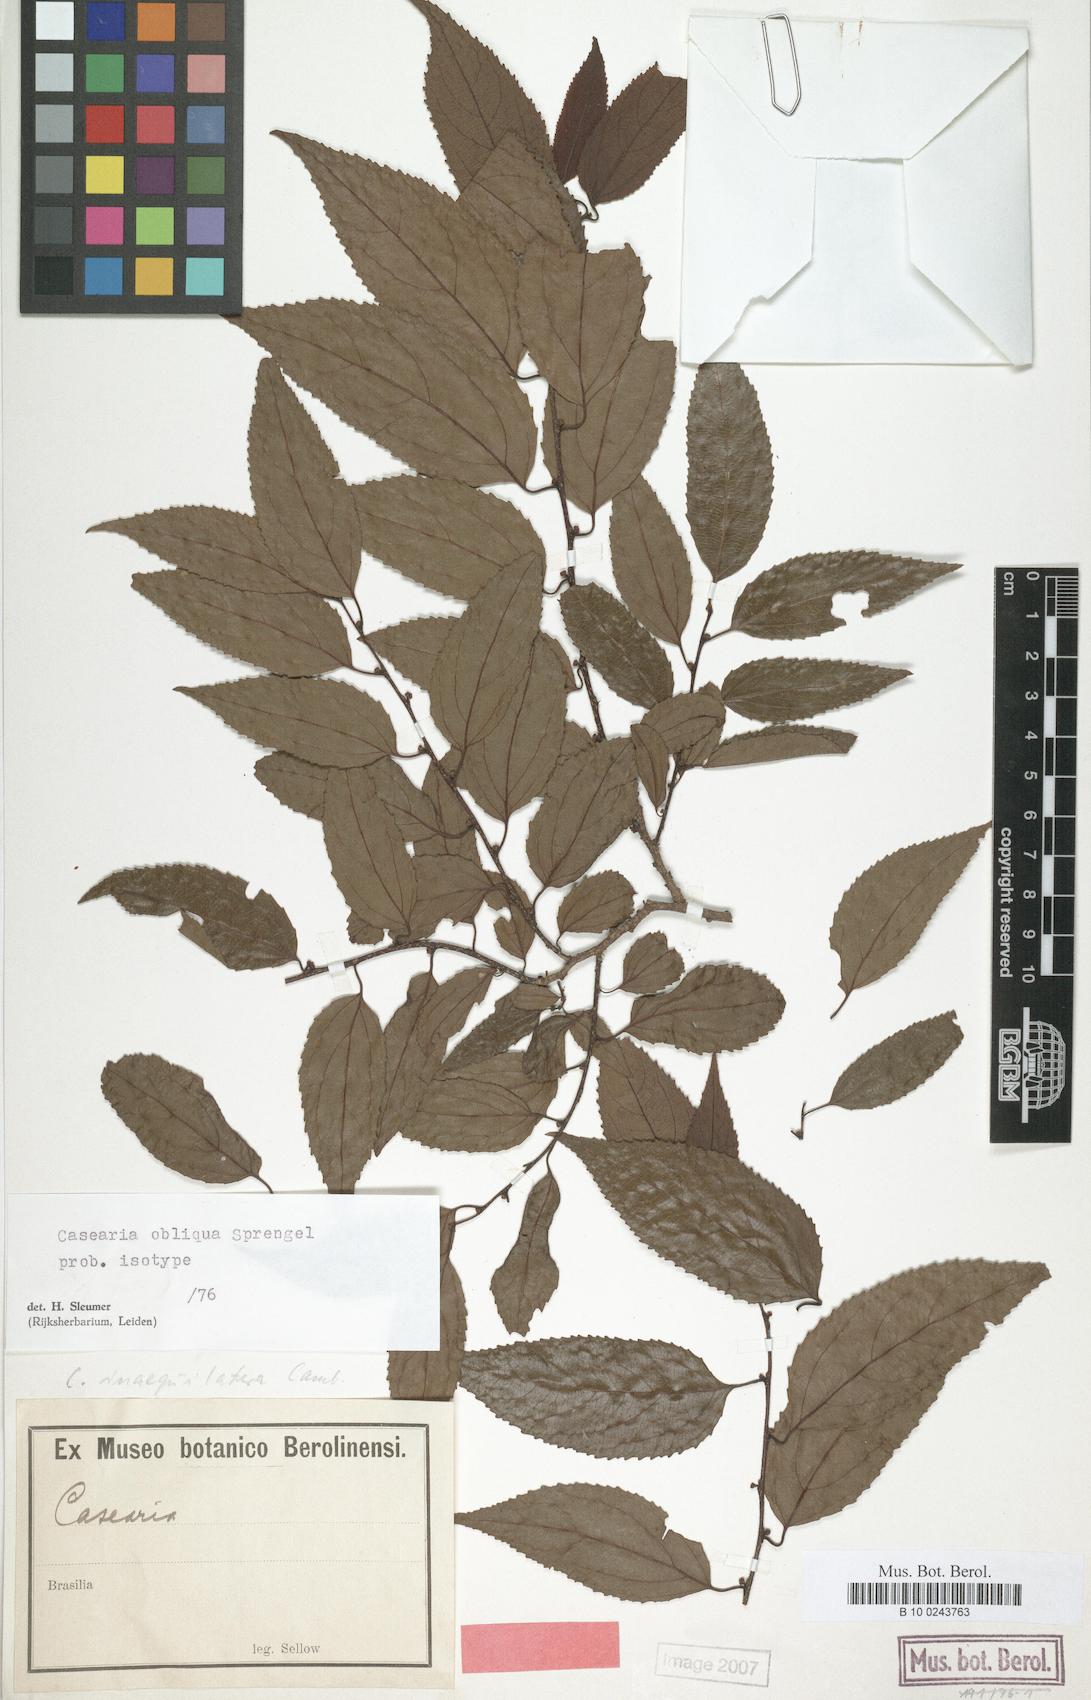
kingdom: Plantae
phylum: Tracheophyta
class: Magnoliopsida
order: Malpighiales
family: Salicaceae
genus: Casearia
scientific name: Casearia obliqua
